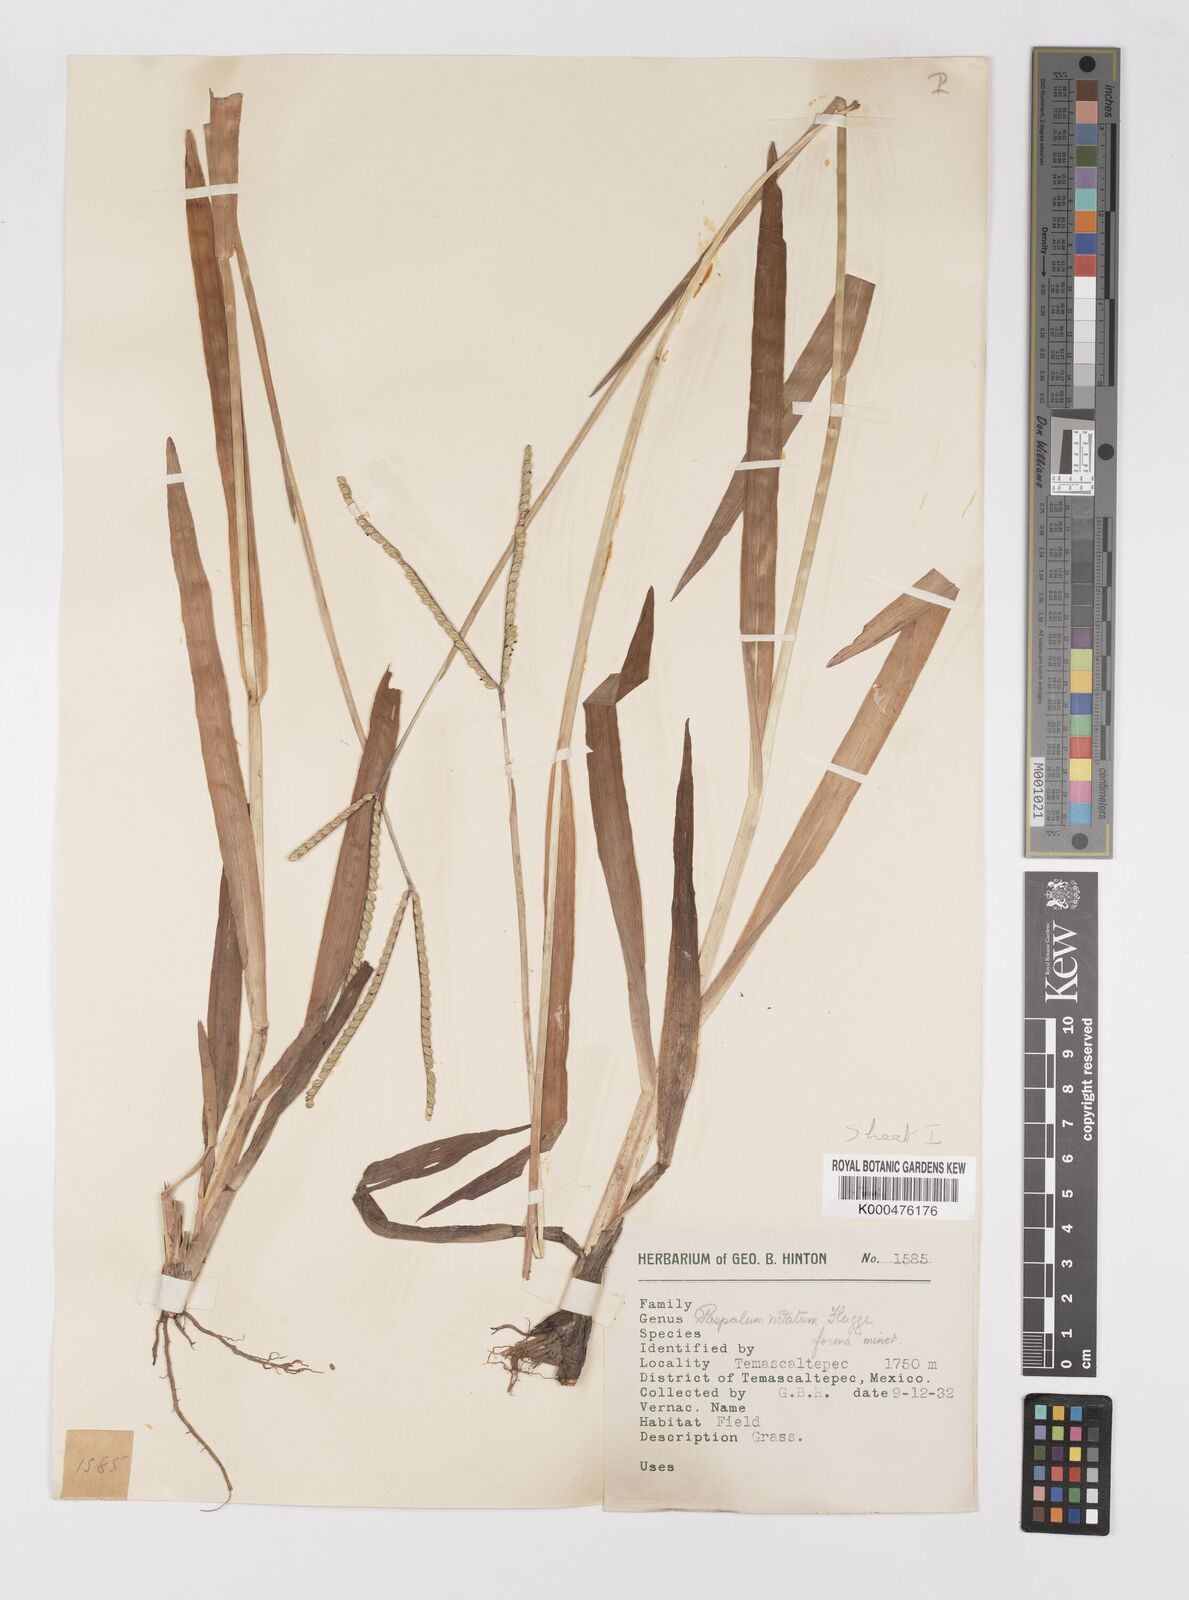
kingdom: Plantae
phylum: Tracheophyta
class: Liliopsida
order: Poales
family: Poaceae
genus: Paspalum
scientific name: Paspalum
